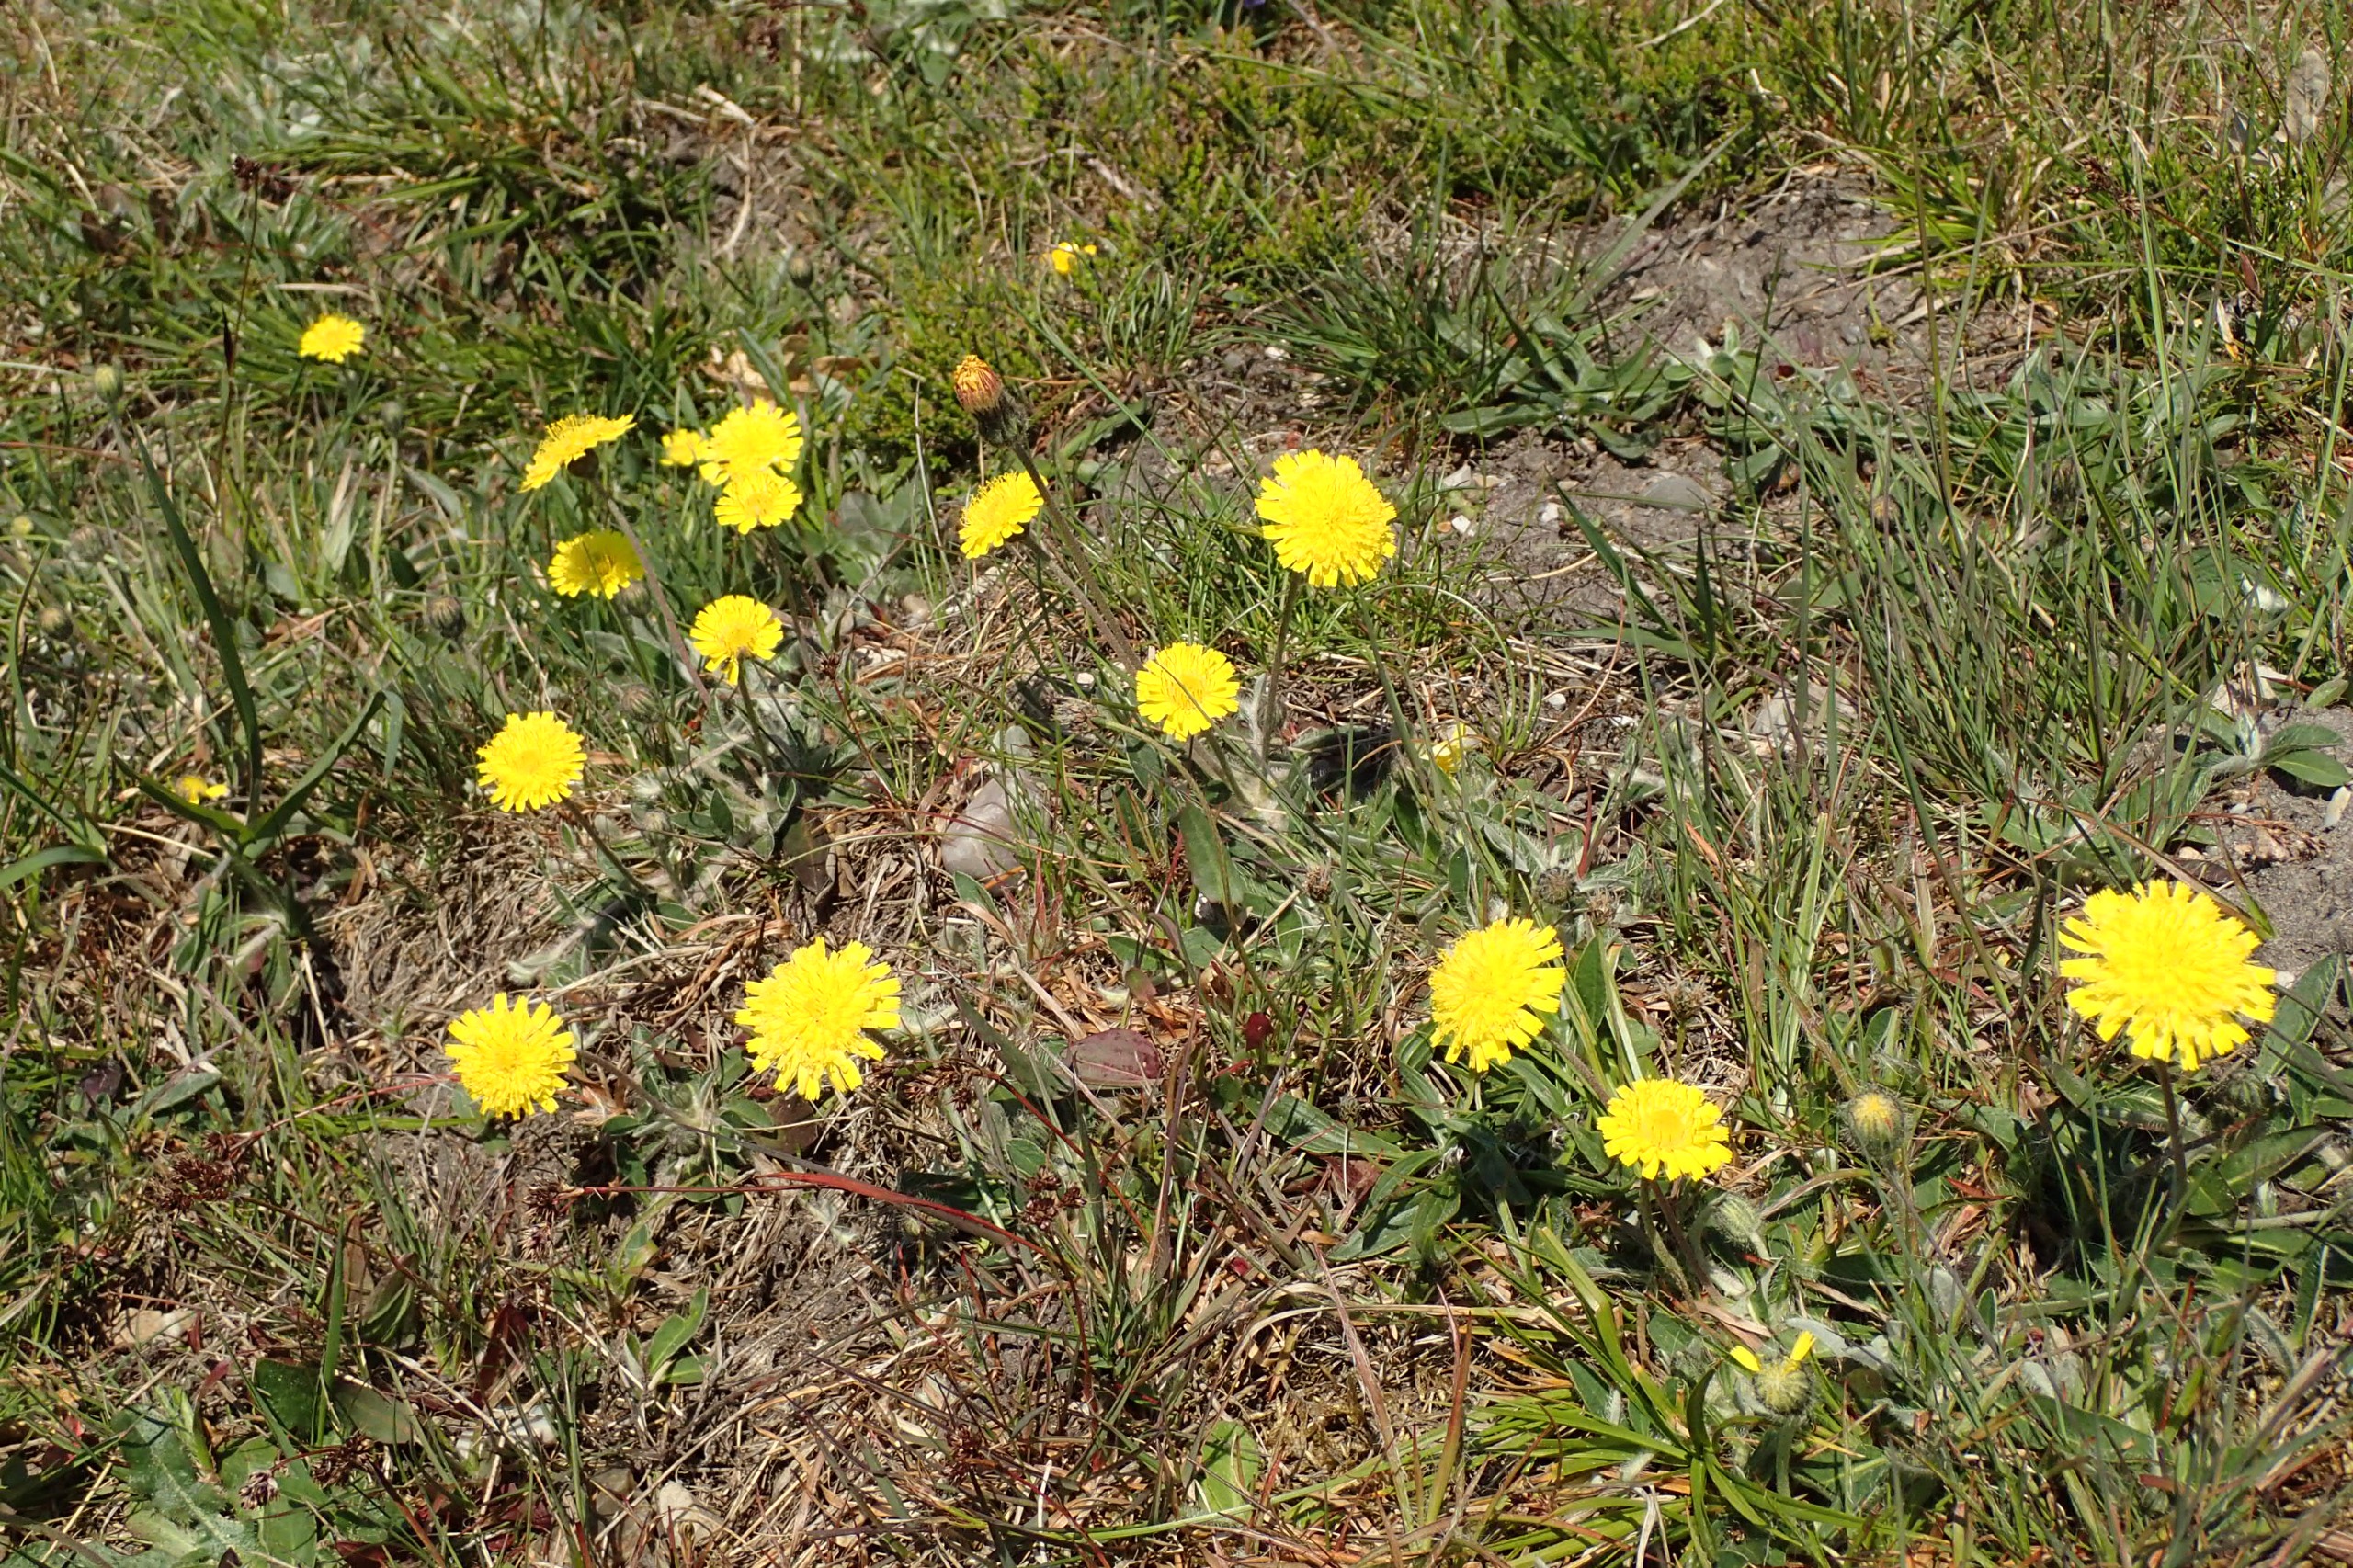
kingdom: Plantae
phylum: Tracheophyta
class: Magnoliopsida
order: Asterales
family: Asteraceae
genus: Pilosella
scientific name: Pilosella officinarum
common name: Håret høgeurt
